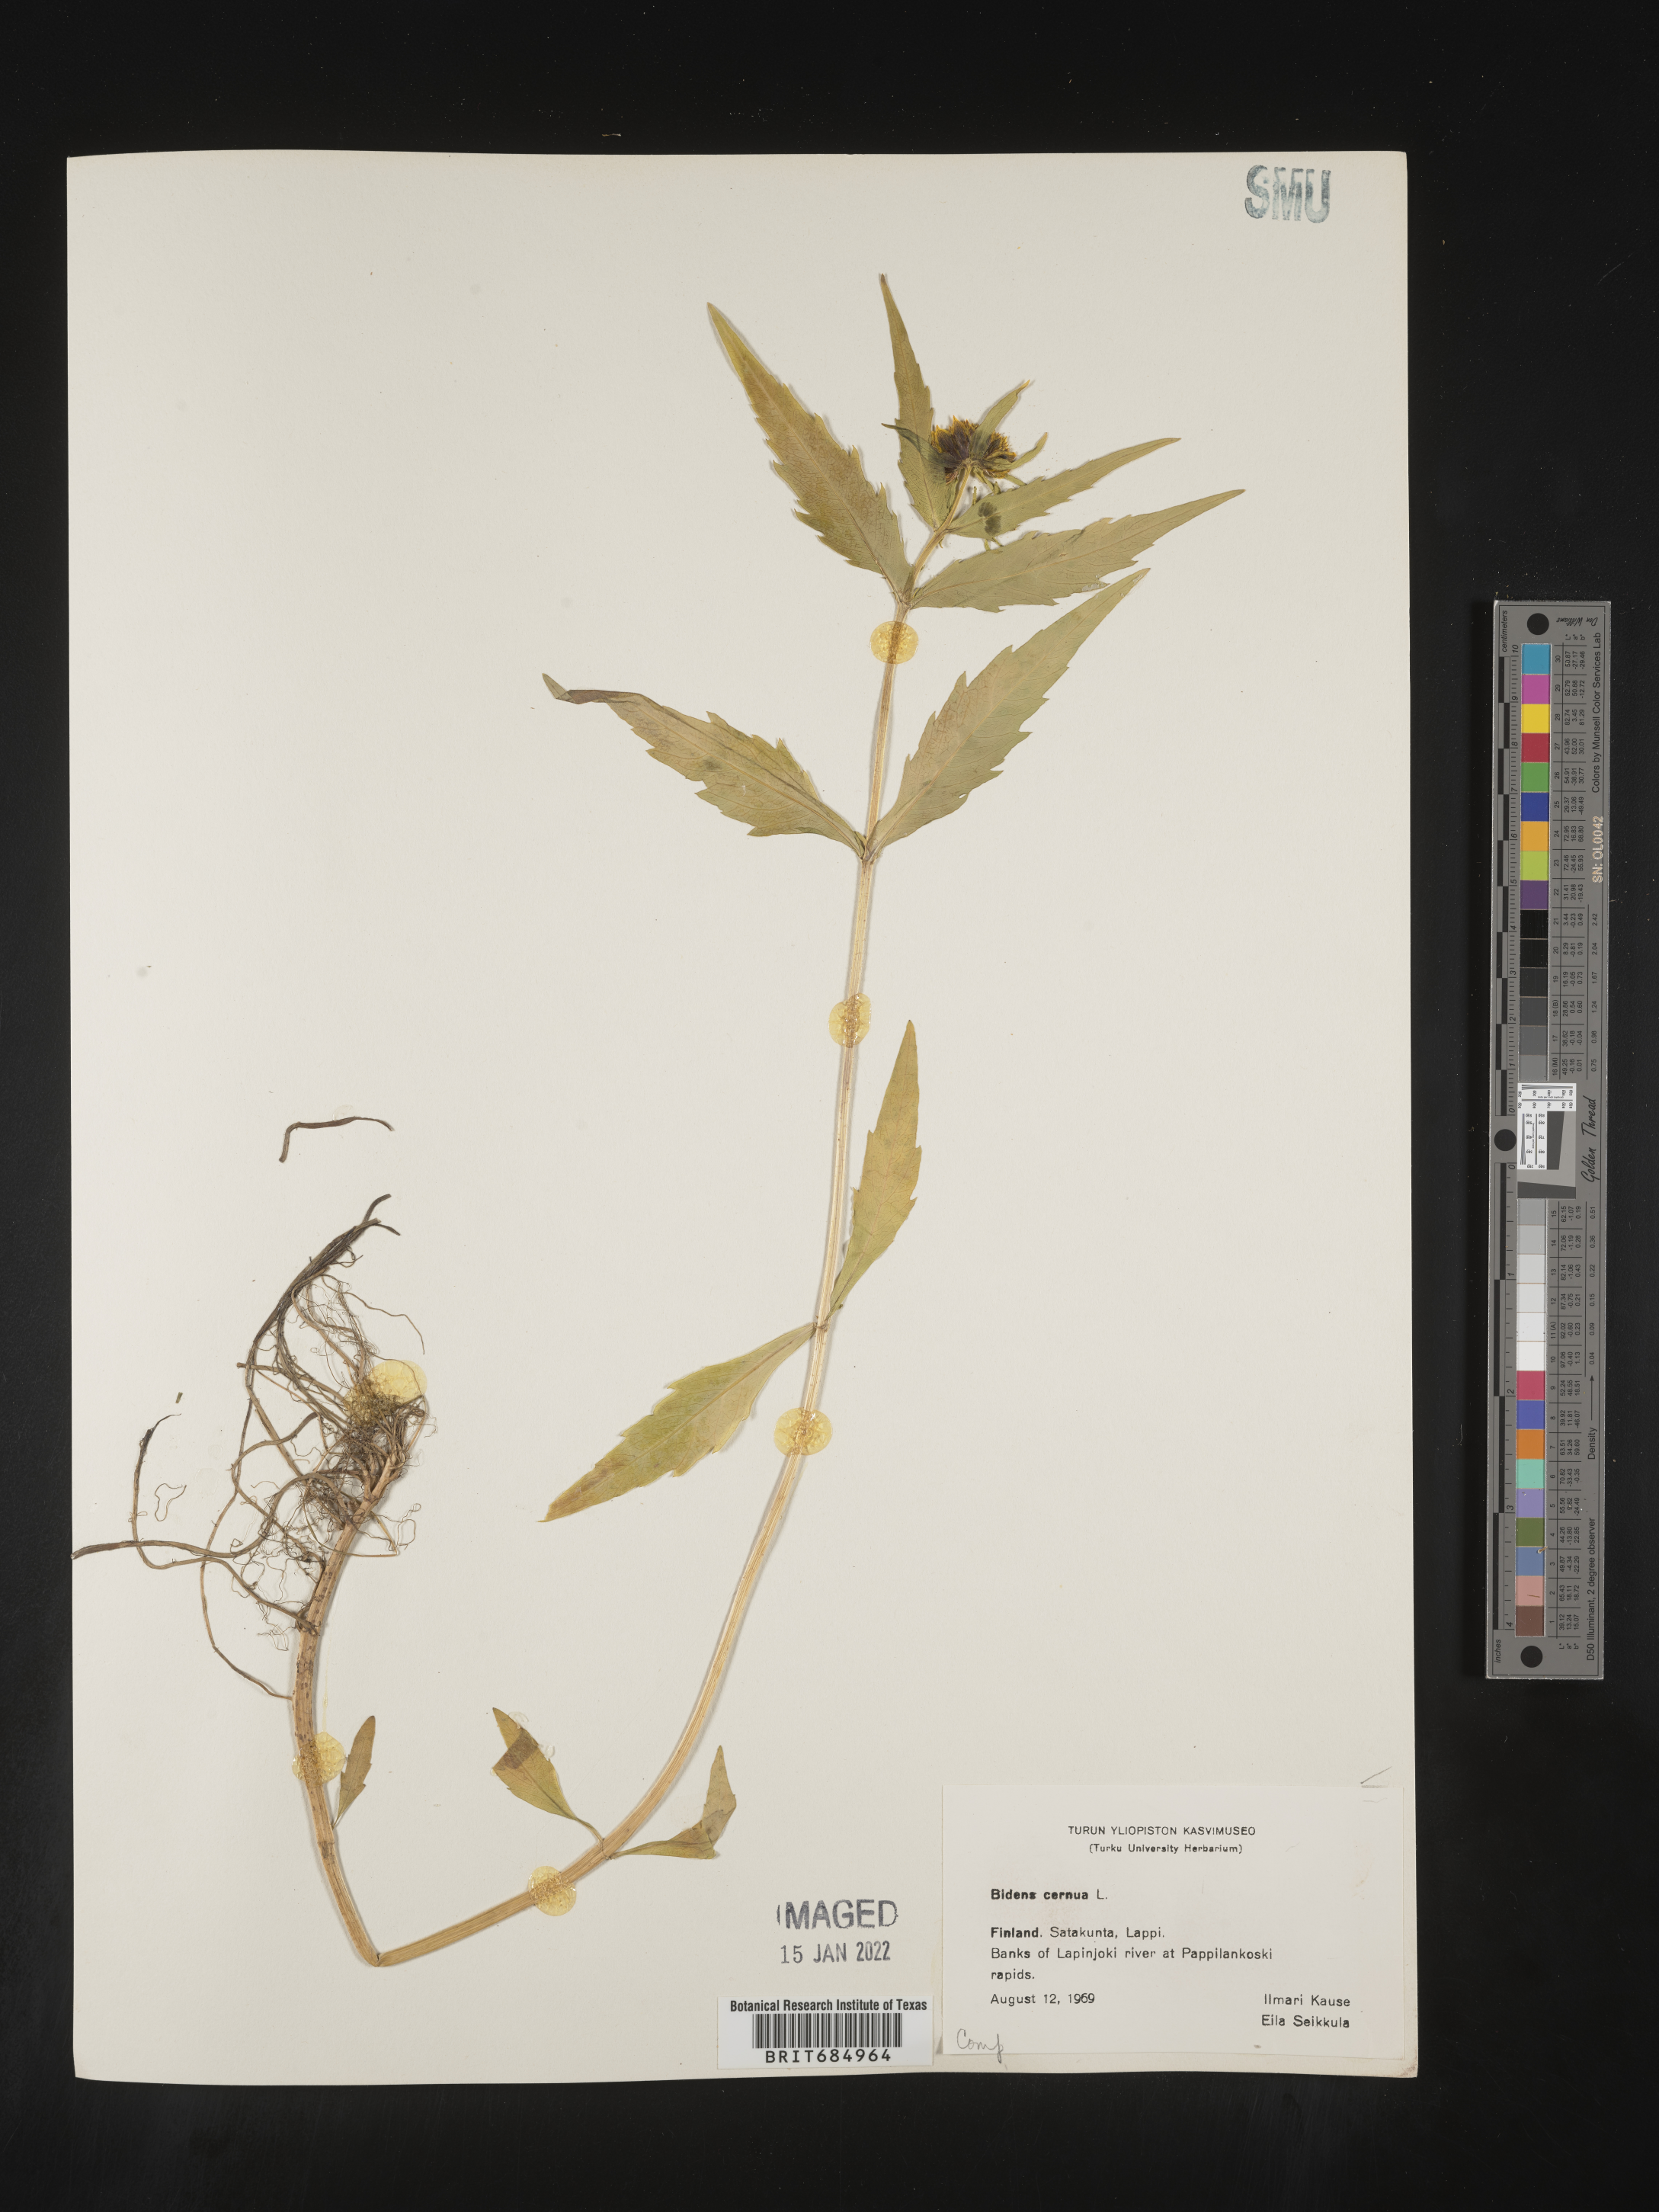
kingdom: Plantae
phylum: Tracheophyta
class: Magnoliopsida
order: Asterales
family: Asteraceae
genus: Bidens
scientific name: Bidens
